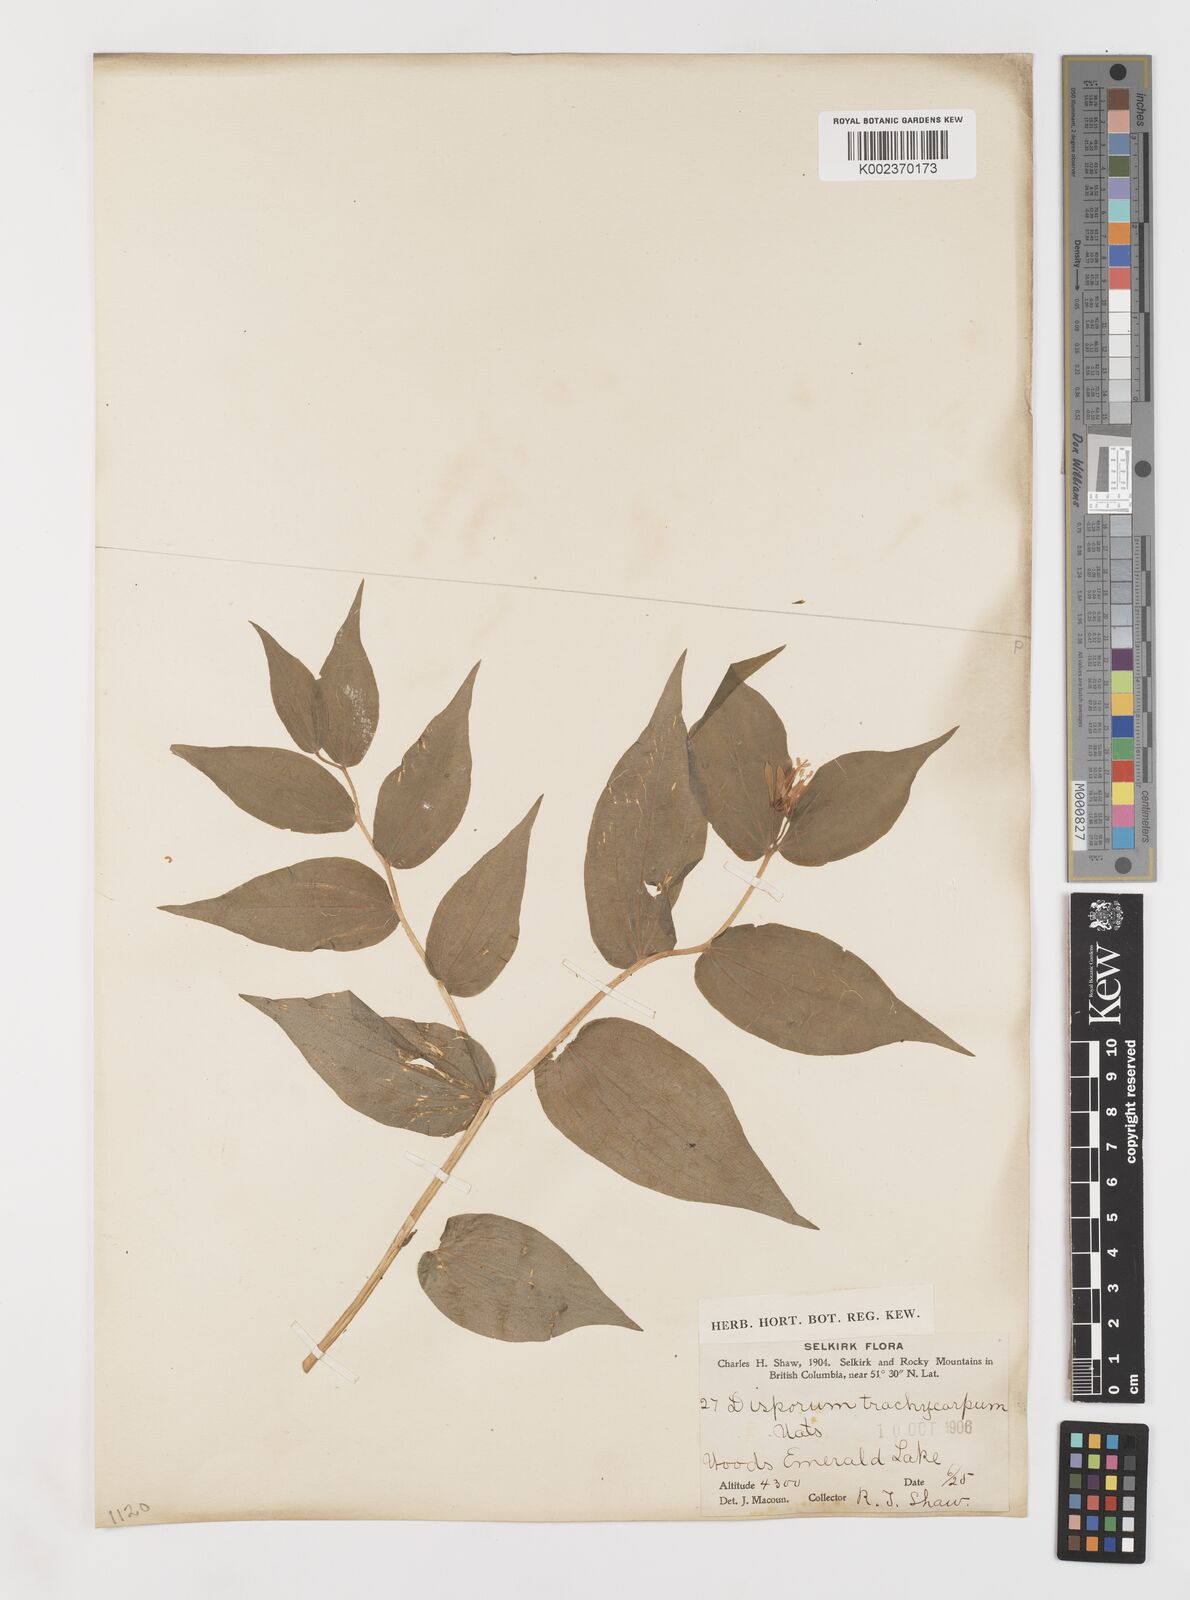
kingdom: Plantae
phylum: Tracheophyta
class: Liliopsida
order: Liliales
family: Liliaceae
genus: Prosartes
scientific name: Prosartes trachycarpa
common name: Rough-fruit fairy-bells
